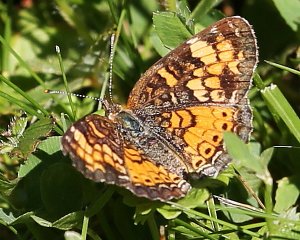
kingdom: Animalia
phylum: Arthropoda
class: Insecta
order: Lepidoptera
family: Nymphalidae
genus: Phyciodes
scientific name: Phyciodes tharos
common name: Northern Crescent
